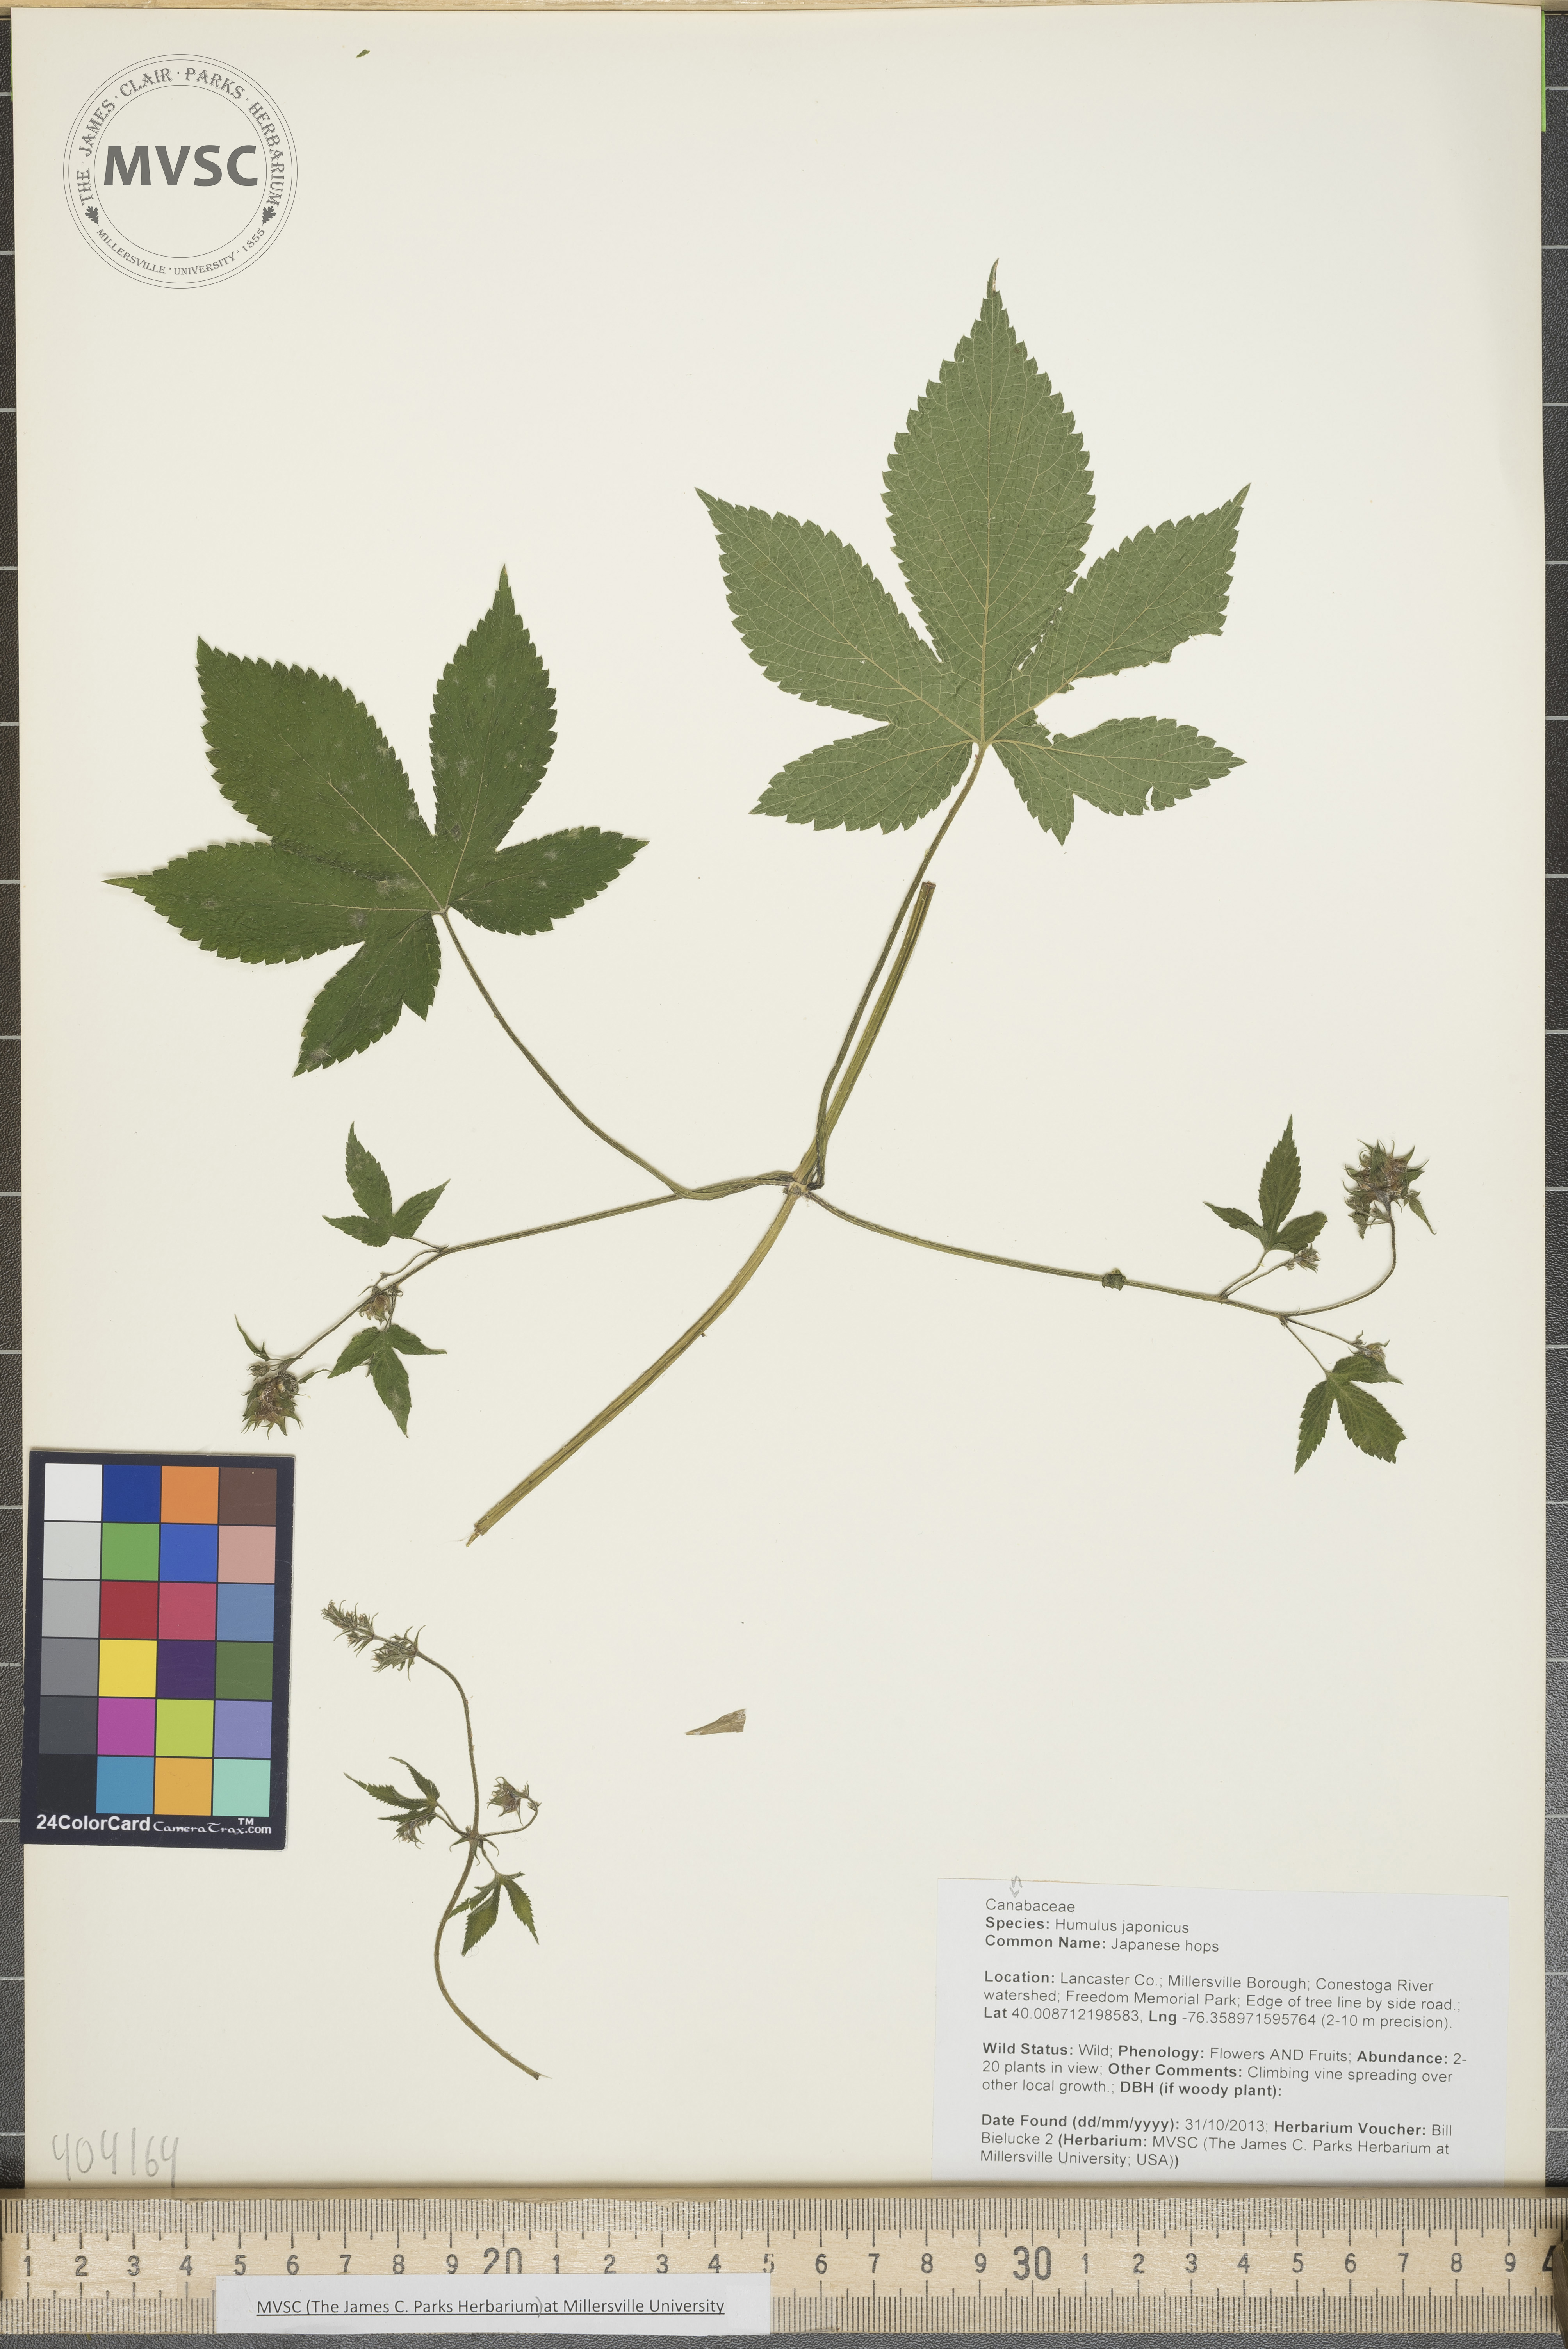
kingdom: Plantae
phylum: Tracheophyta
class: Magnoliopsida
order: Rosales
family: Cannabaceae
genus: Humulus
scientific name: Humulus scandens
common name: Japanese hops
